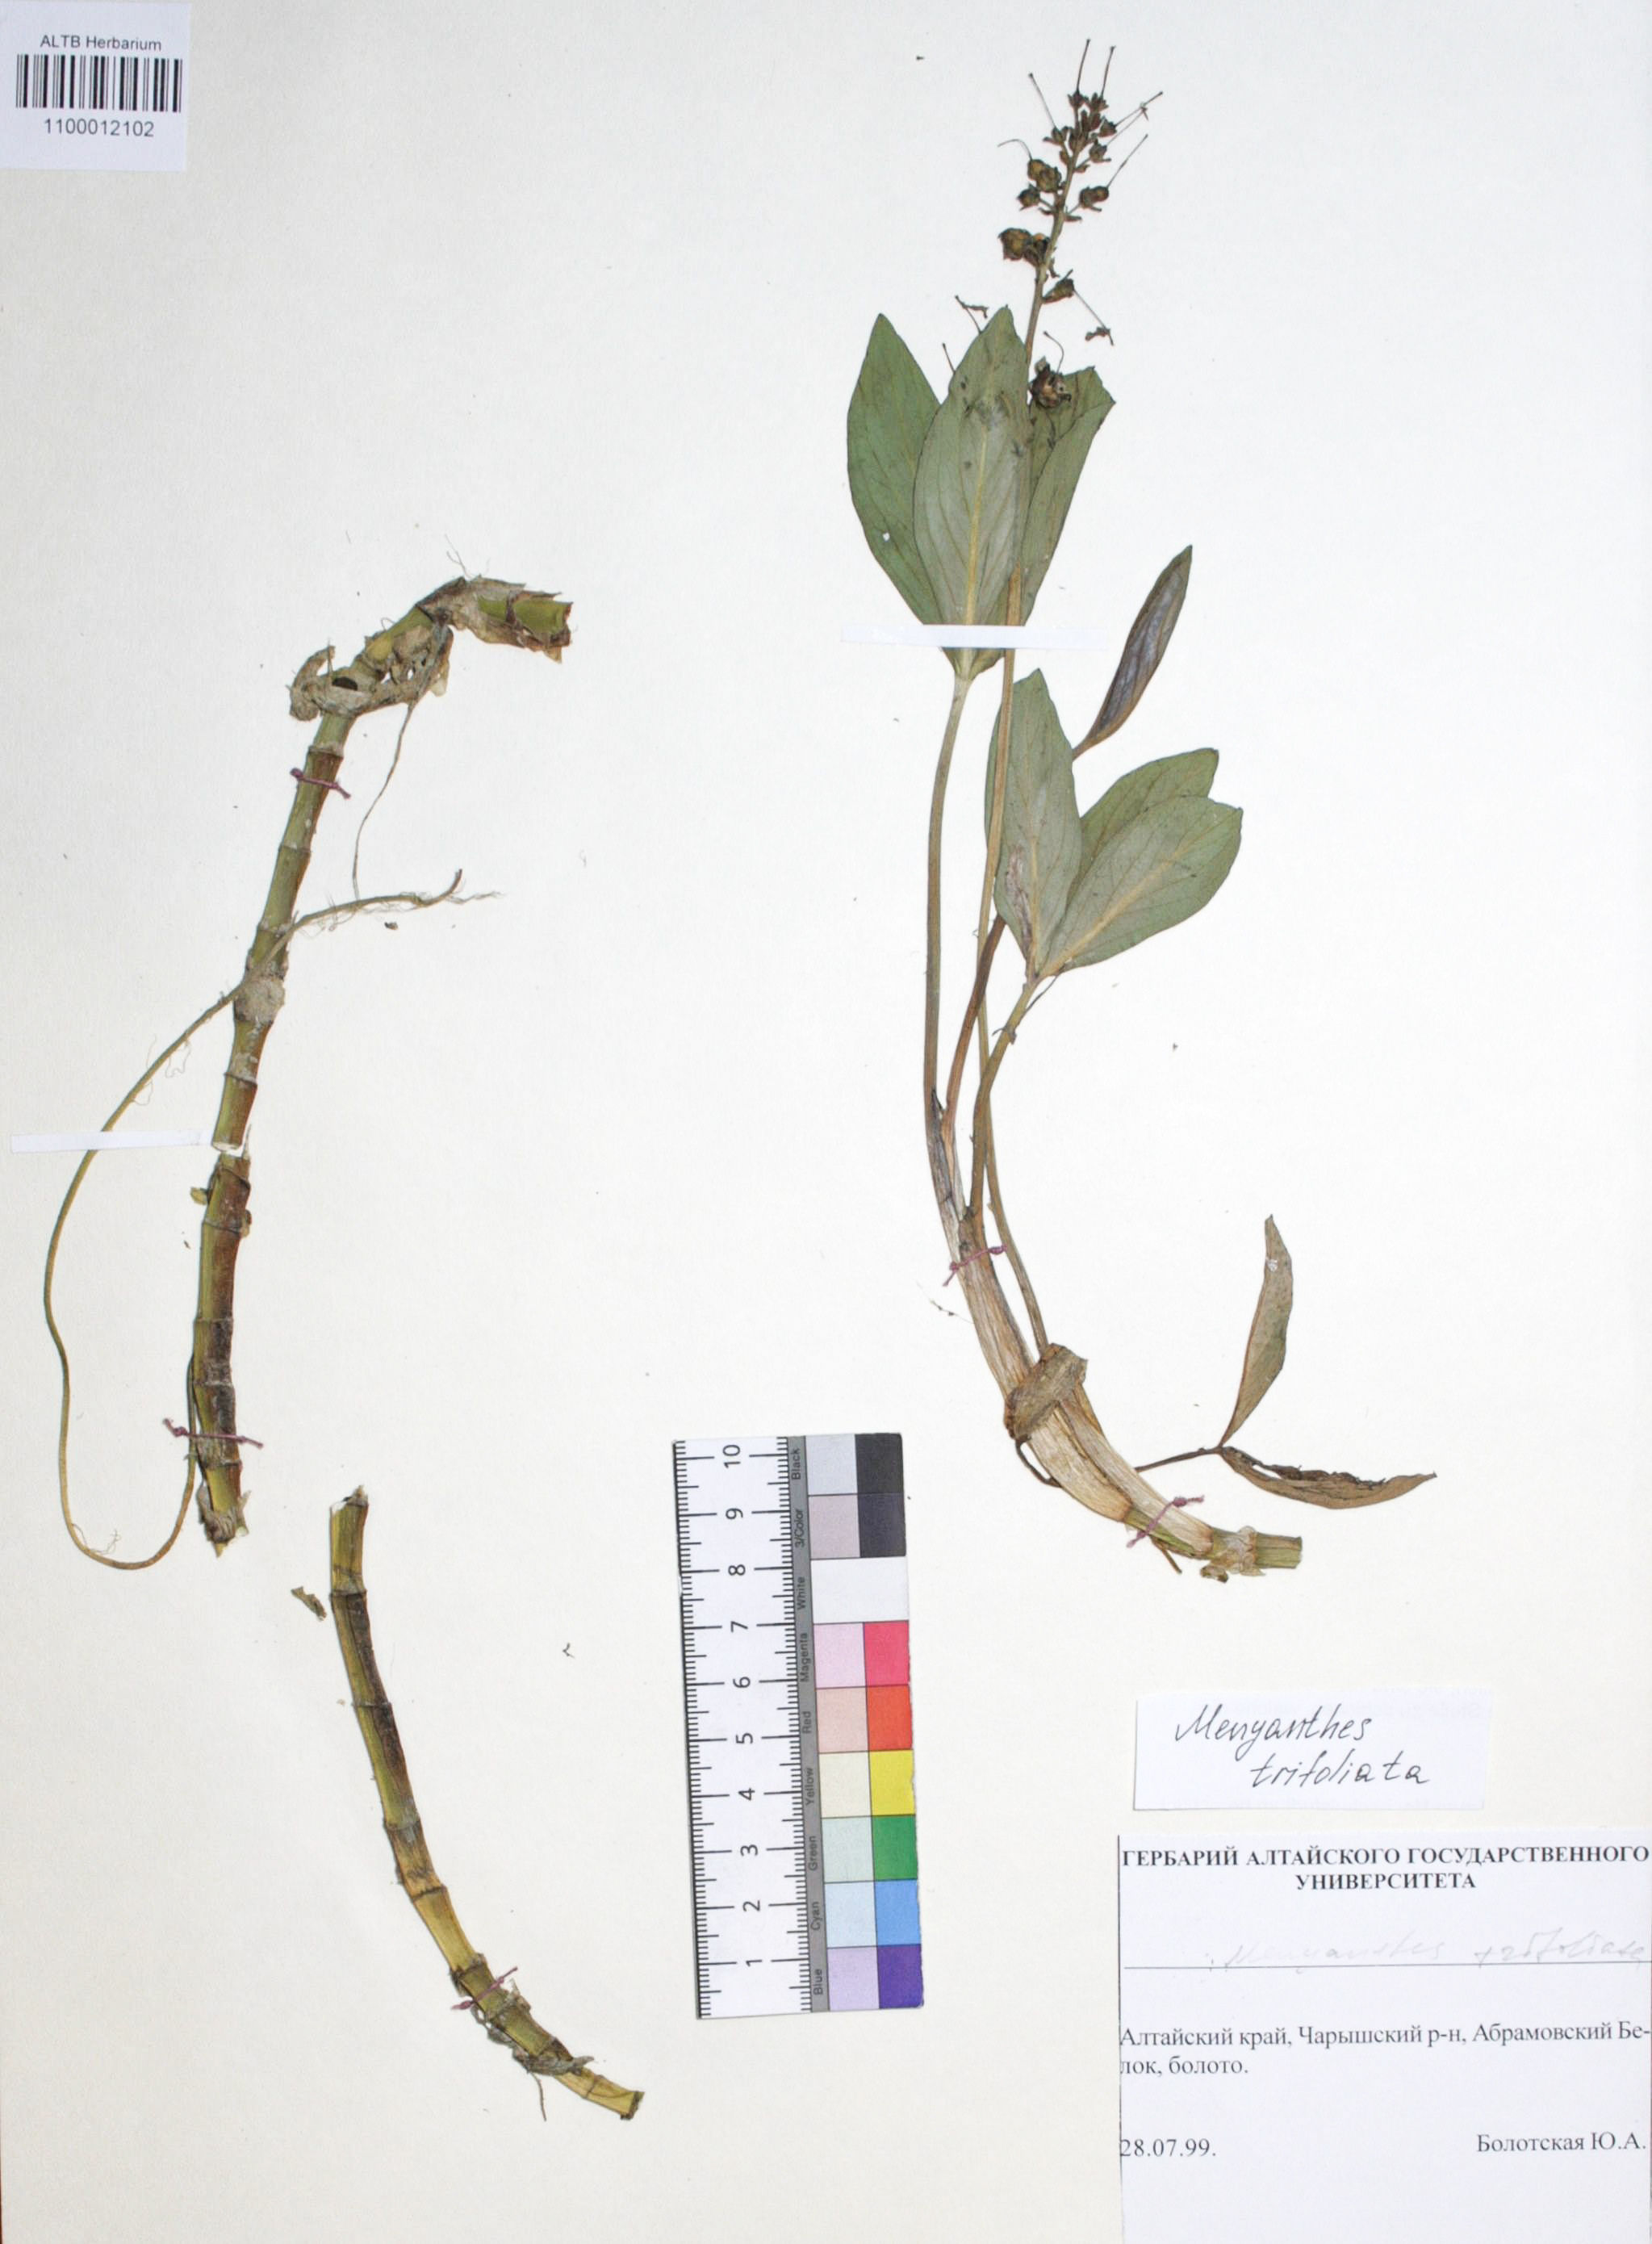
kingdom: Plantae
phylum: Tracheophyta
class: Magnoliopsida
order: Asterales
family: Menyanthaceae
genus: Menyanthes
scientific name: Menyanthes trifoliata
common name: Bogbean
